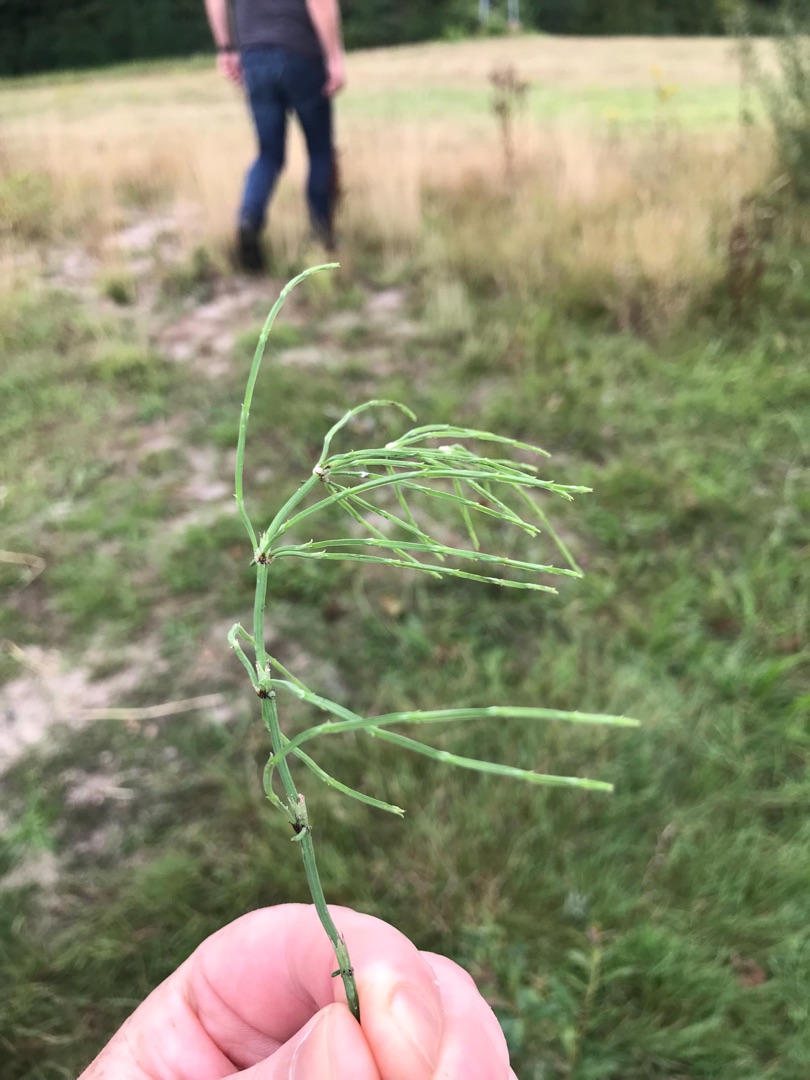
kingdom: Plantae
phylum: Tracheophyta
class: Polypodiopsida
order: Equisetales
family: Equisetaceae
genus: Equisetum
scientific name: Equisetum arvense
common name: Ager-padderok
